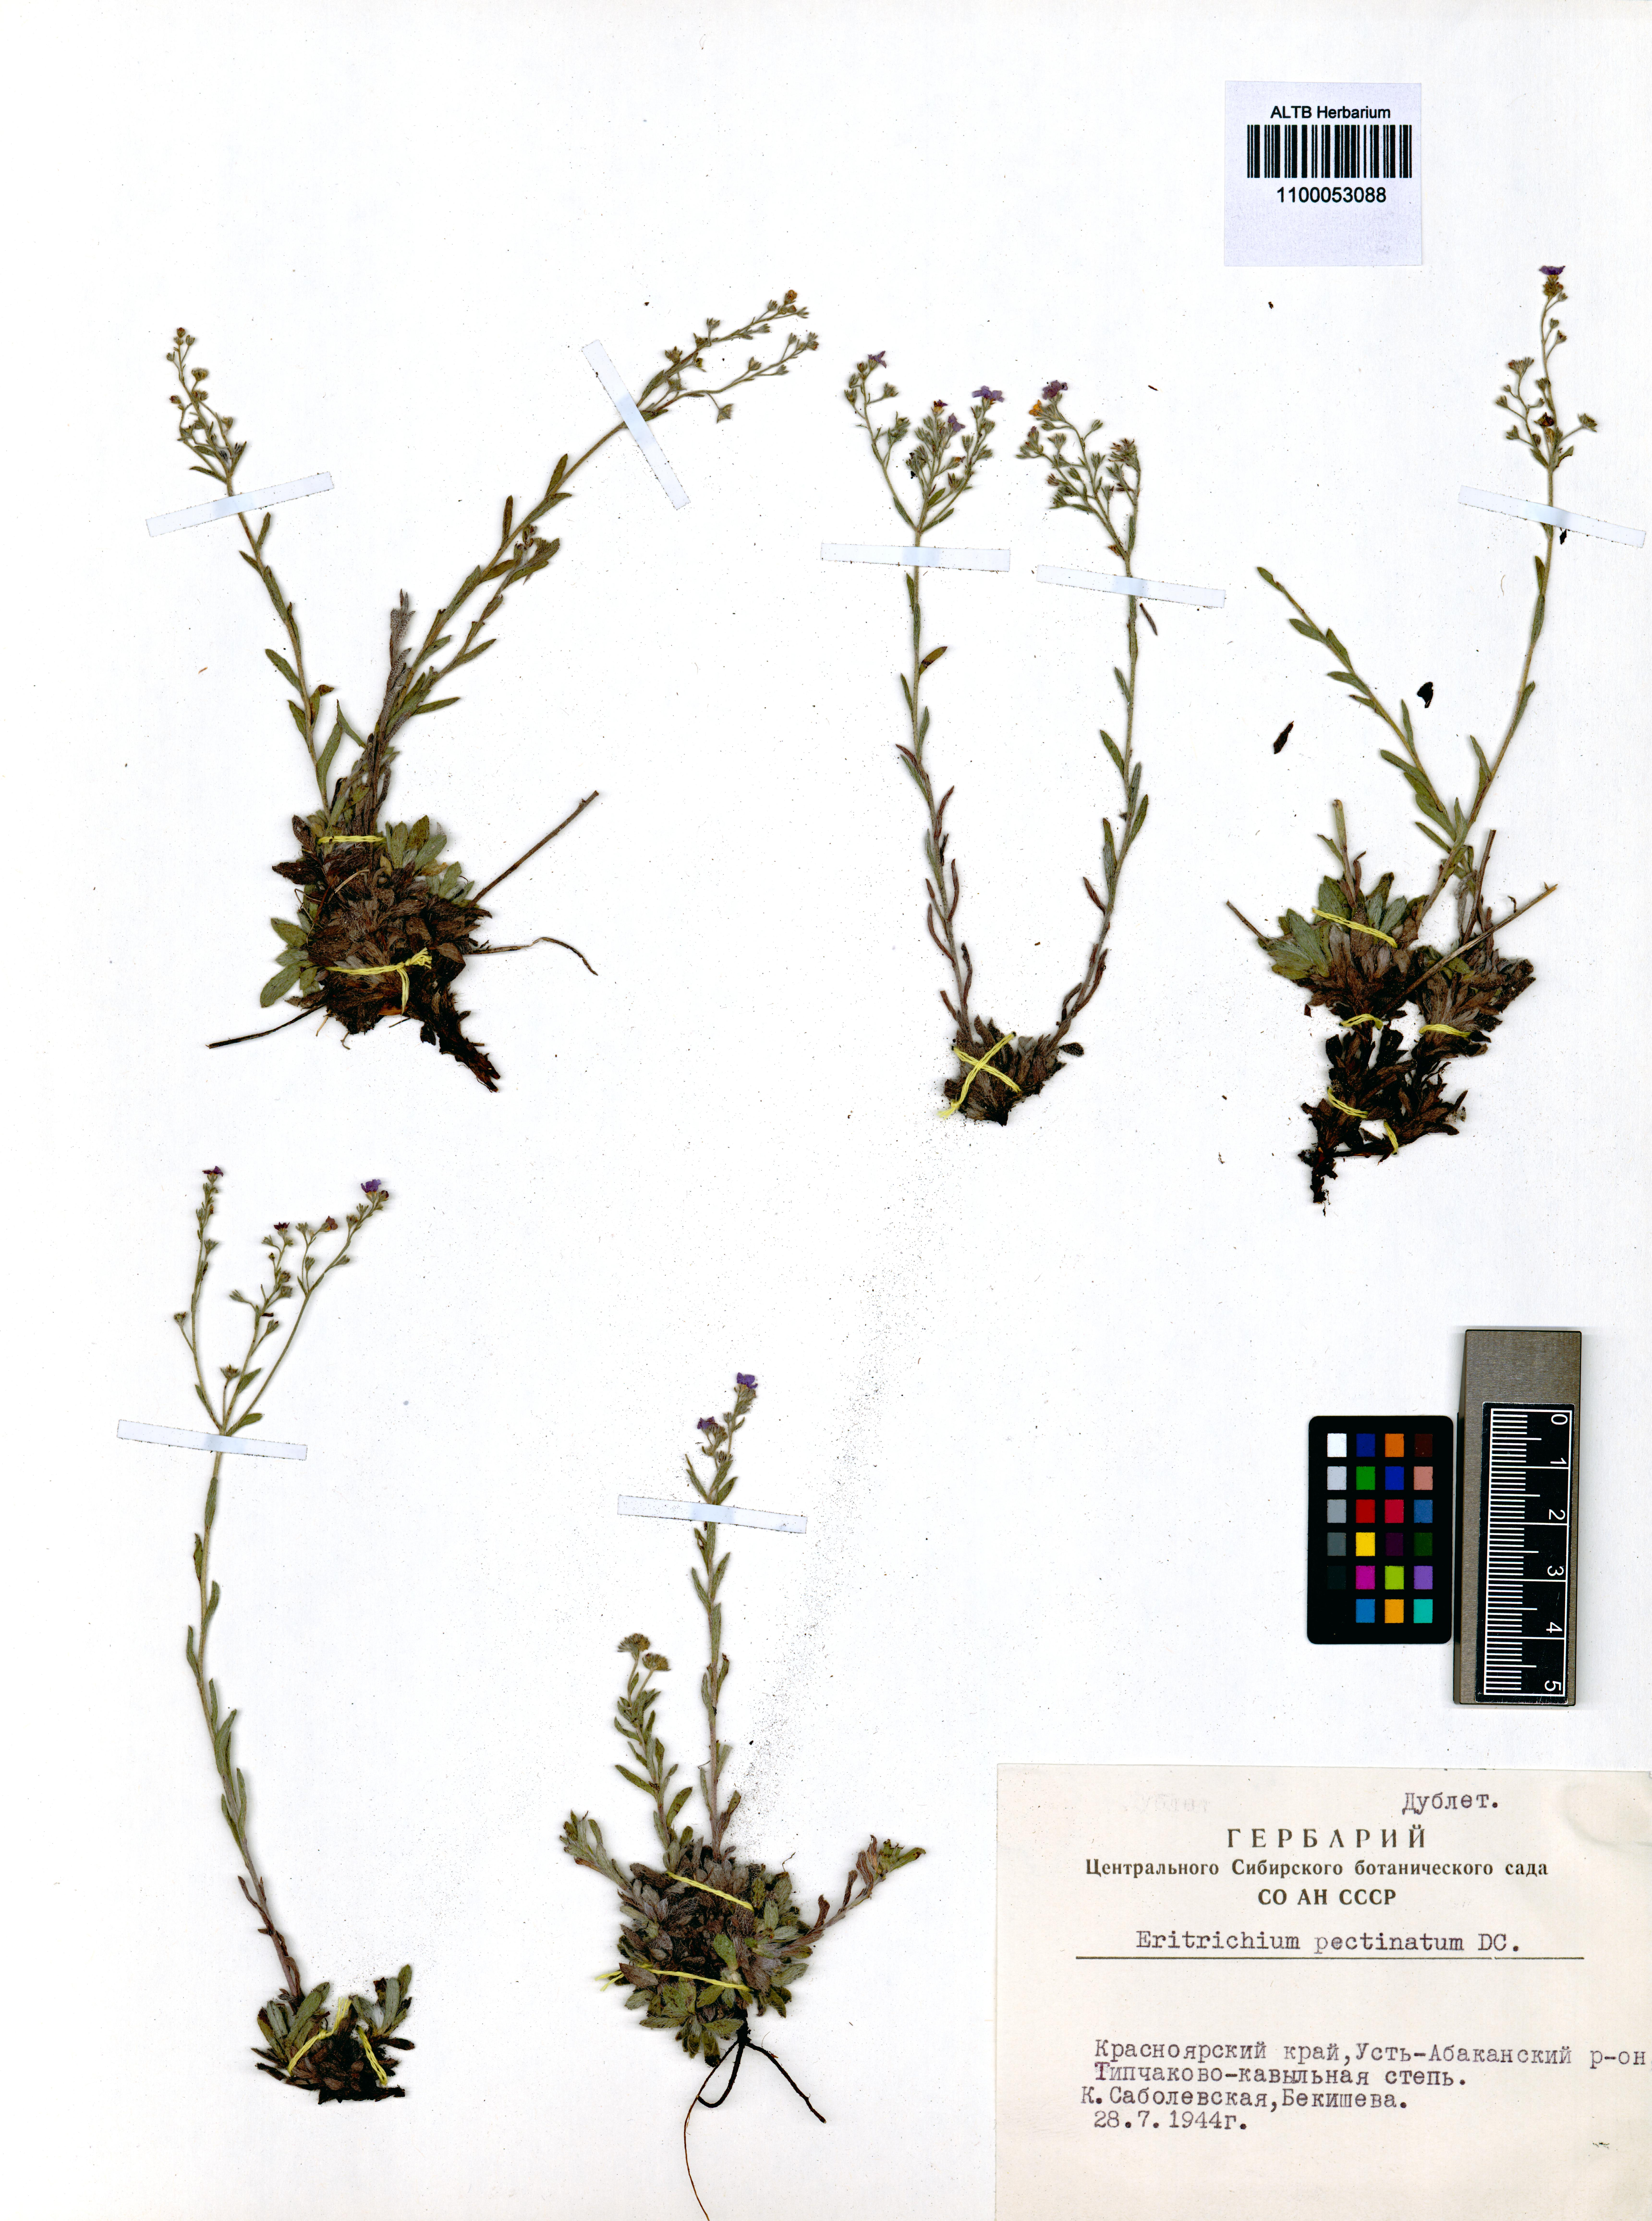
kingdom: Plantae
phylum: Tracheophyta
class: Magnoliopsida
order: Boraginales
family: Boraginaceae
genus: Eritrichium
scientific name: Eritrichium pectinatum
